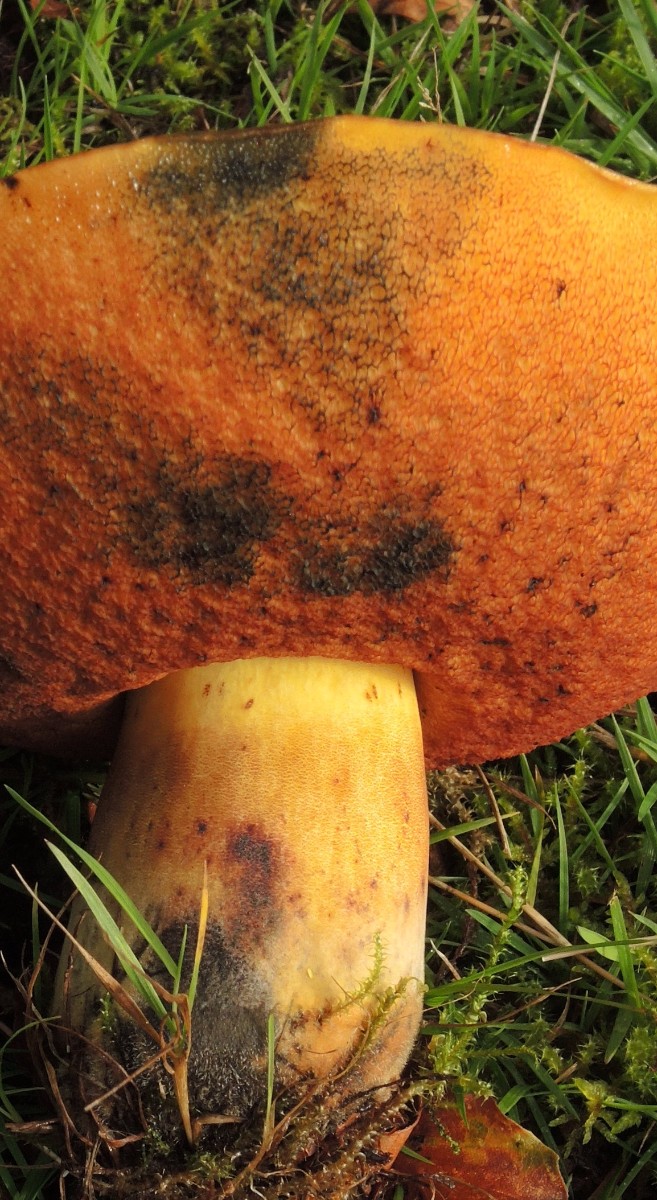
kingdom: Fungi
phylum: Basidiomycota
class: Agaricomycetes
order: Boletales
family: Boletaceae
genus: Neoboletus
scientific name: Neoboletus xanthopus
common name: finprikket indigorørhat
